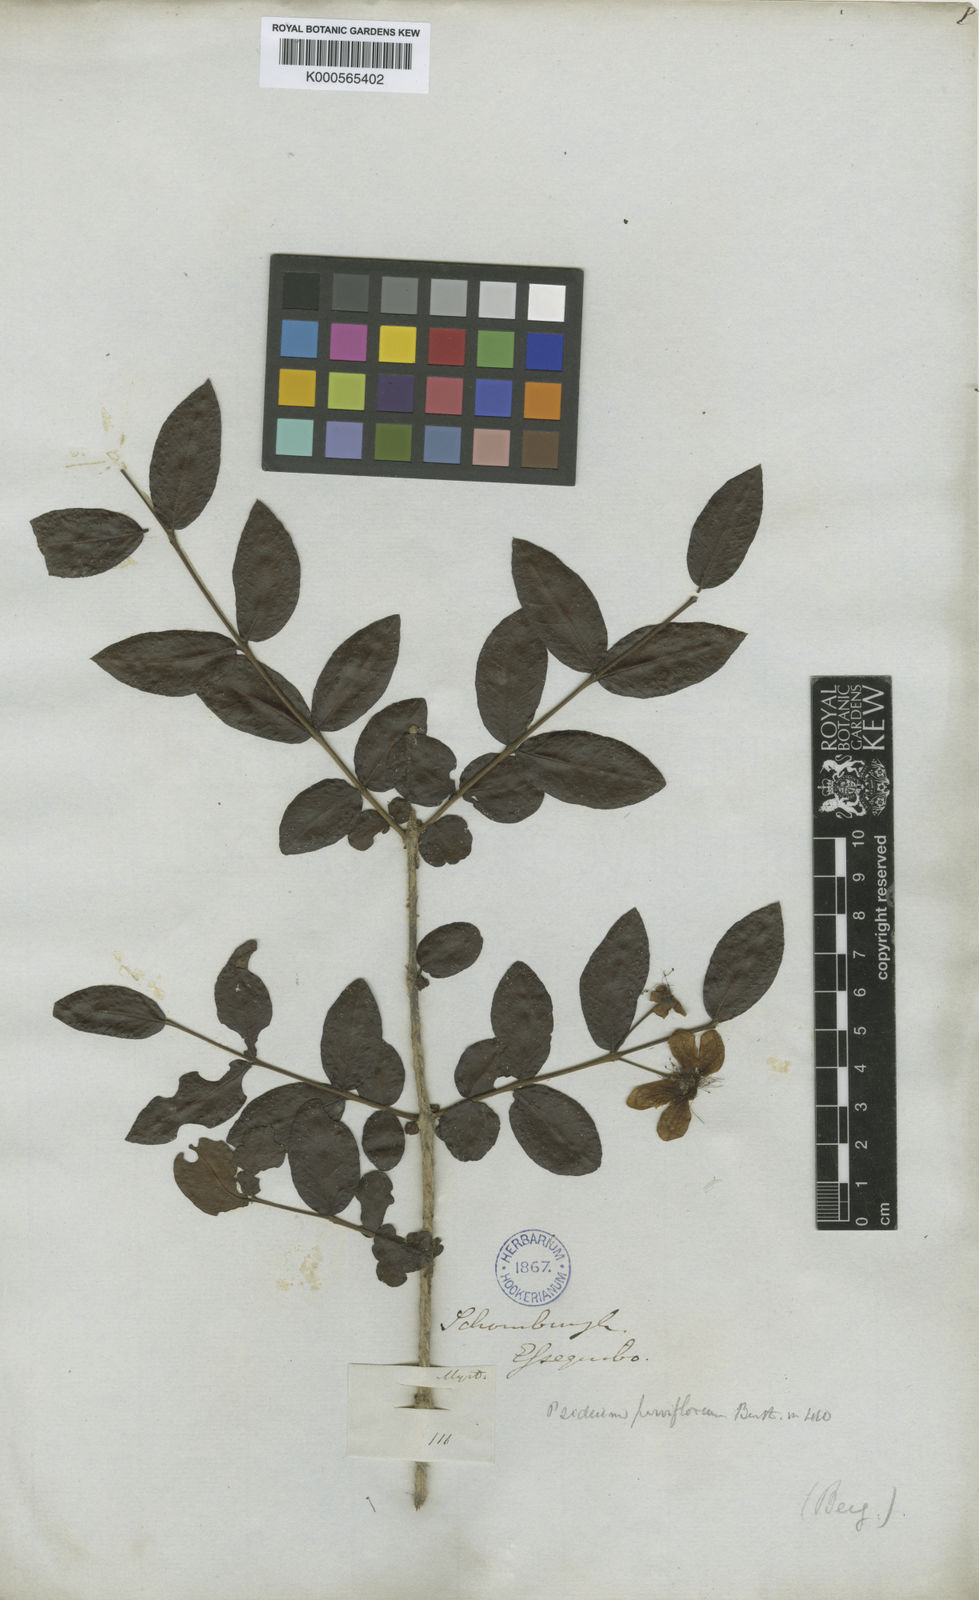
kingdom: Plantae
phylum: Tracheophyta
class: Magnoliopsida
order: Myrtales
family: Myrtaceae
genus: Psidium
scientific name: Psidium striatulum
